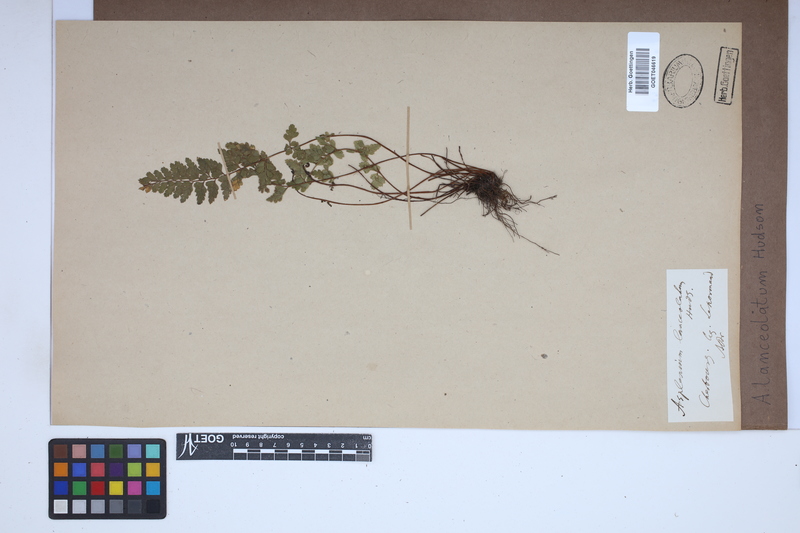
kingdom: Plantae
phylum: Tracheophyta
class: Polypodiopsida
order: Polypodiales
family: Aspleniaceae
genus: Asplenium
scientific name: Asplenium obovatum
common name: Lanceolate spleenwort
